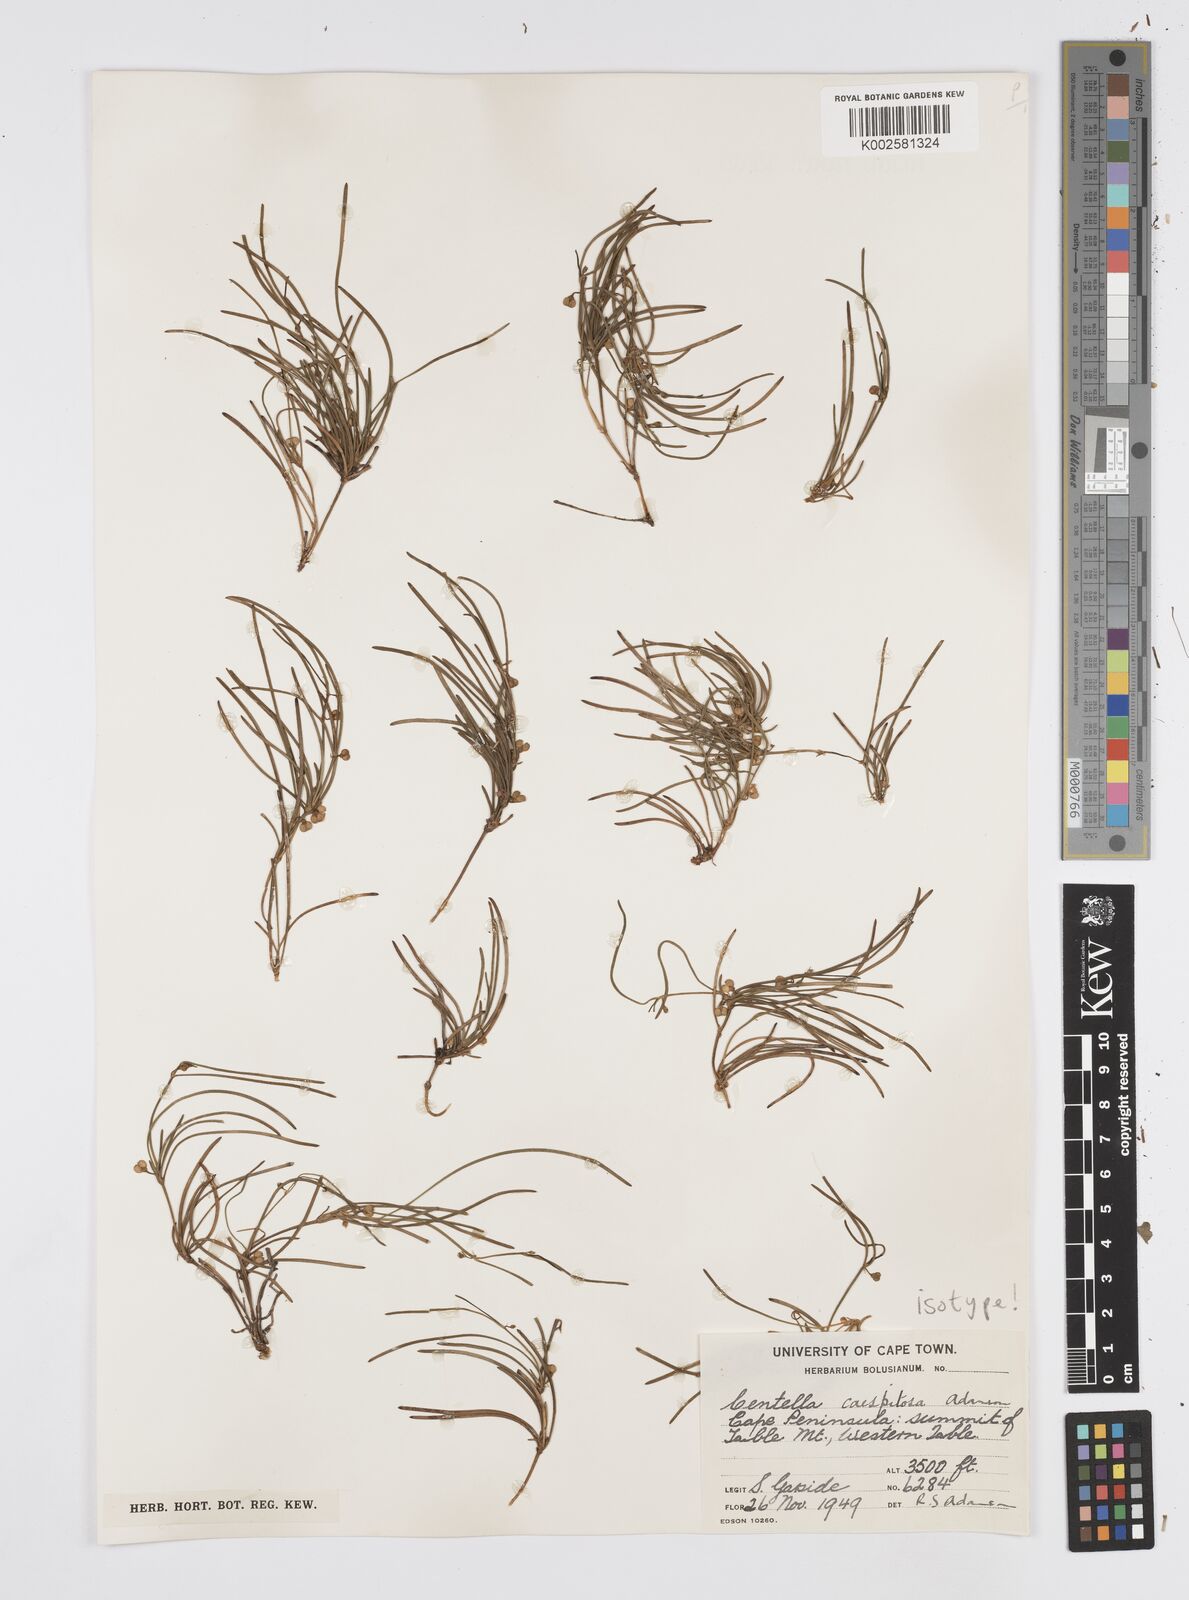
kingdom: Plantae
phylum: Tracheophyta
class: Magnoliopsida
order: Apiales
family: Apiaceae
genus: Centella
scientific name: Centella caespitosa
